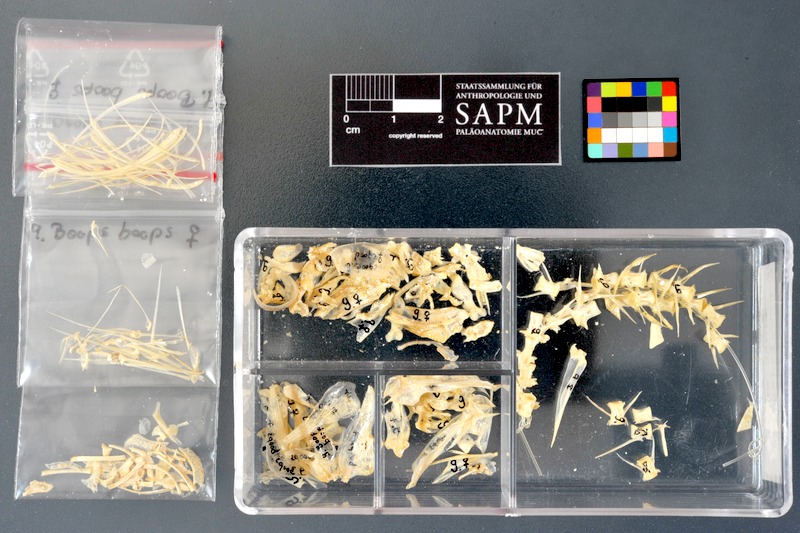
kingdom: Animalia
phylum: Chordata
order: Perciformes
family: Sparidae
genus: Boops
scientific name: Boops boops
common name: Bogue
